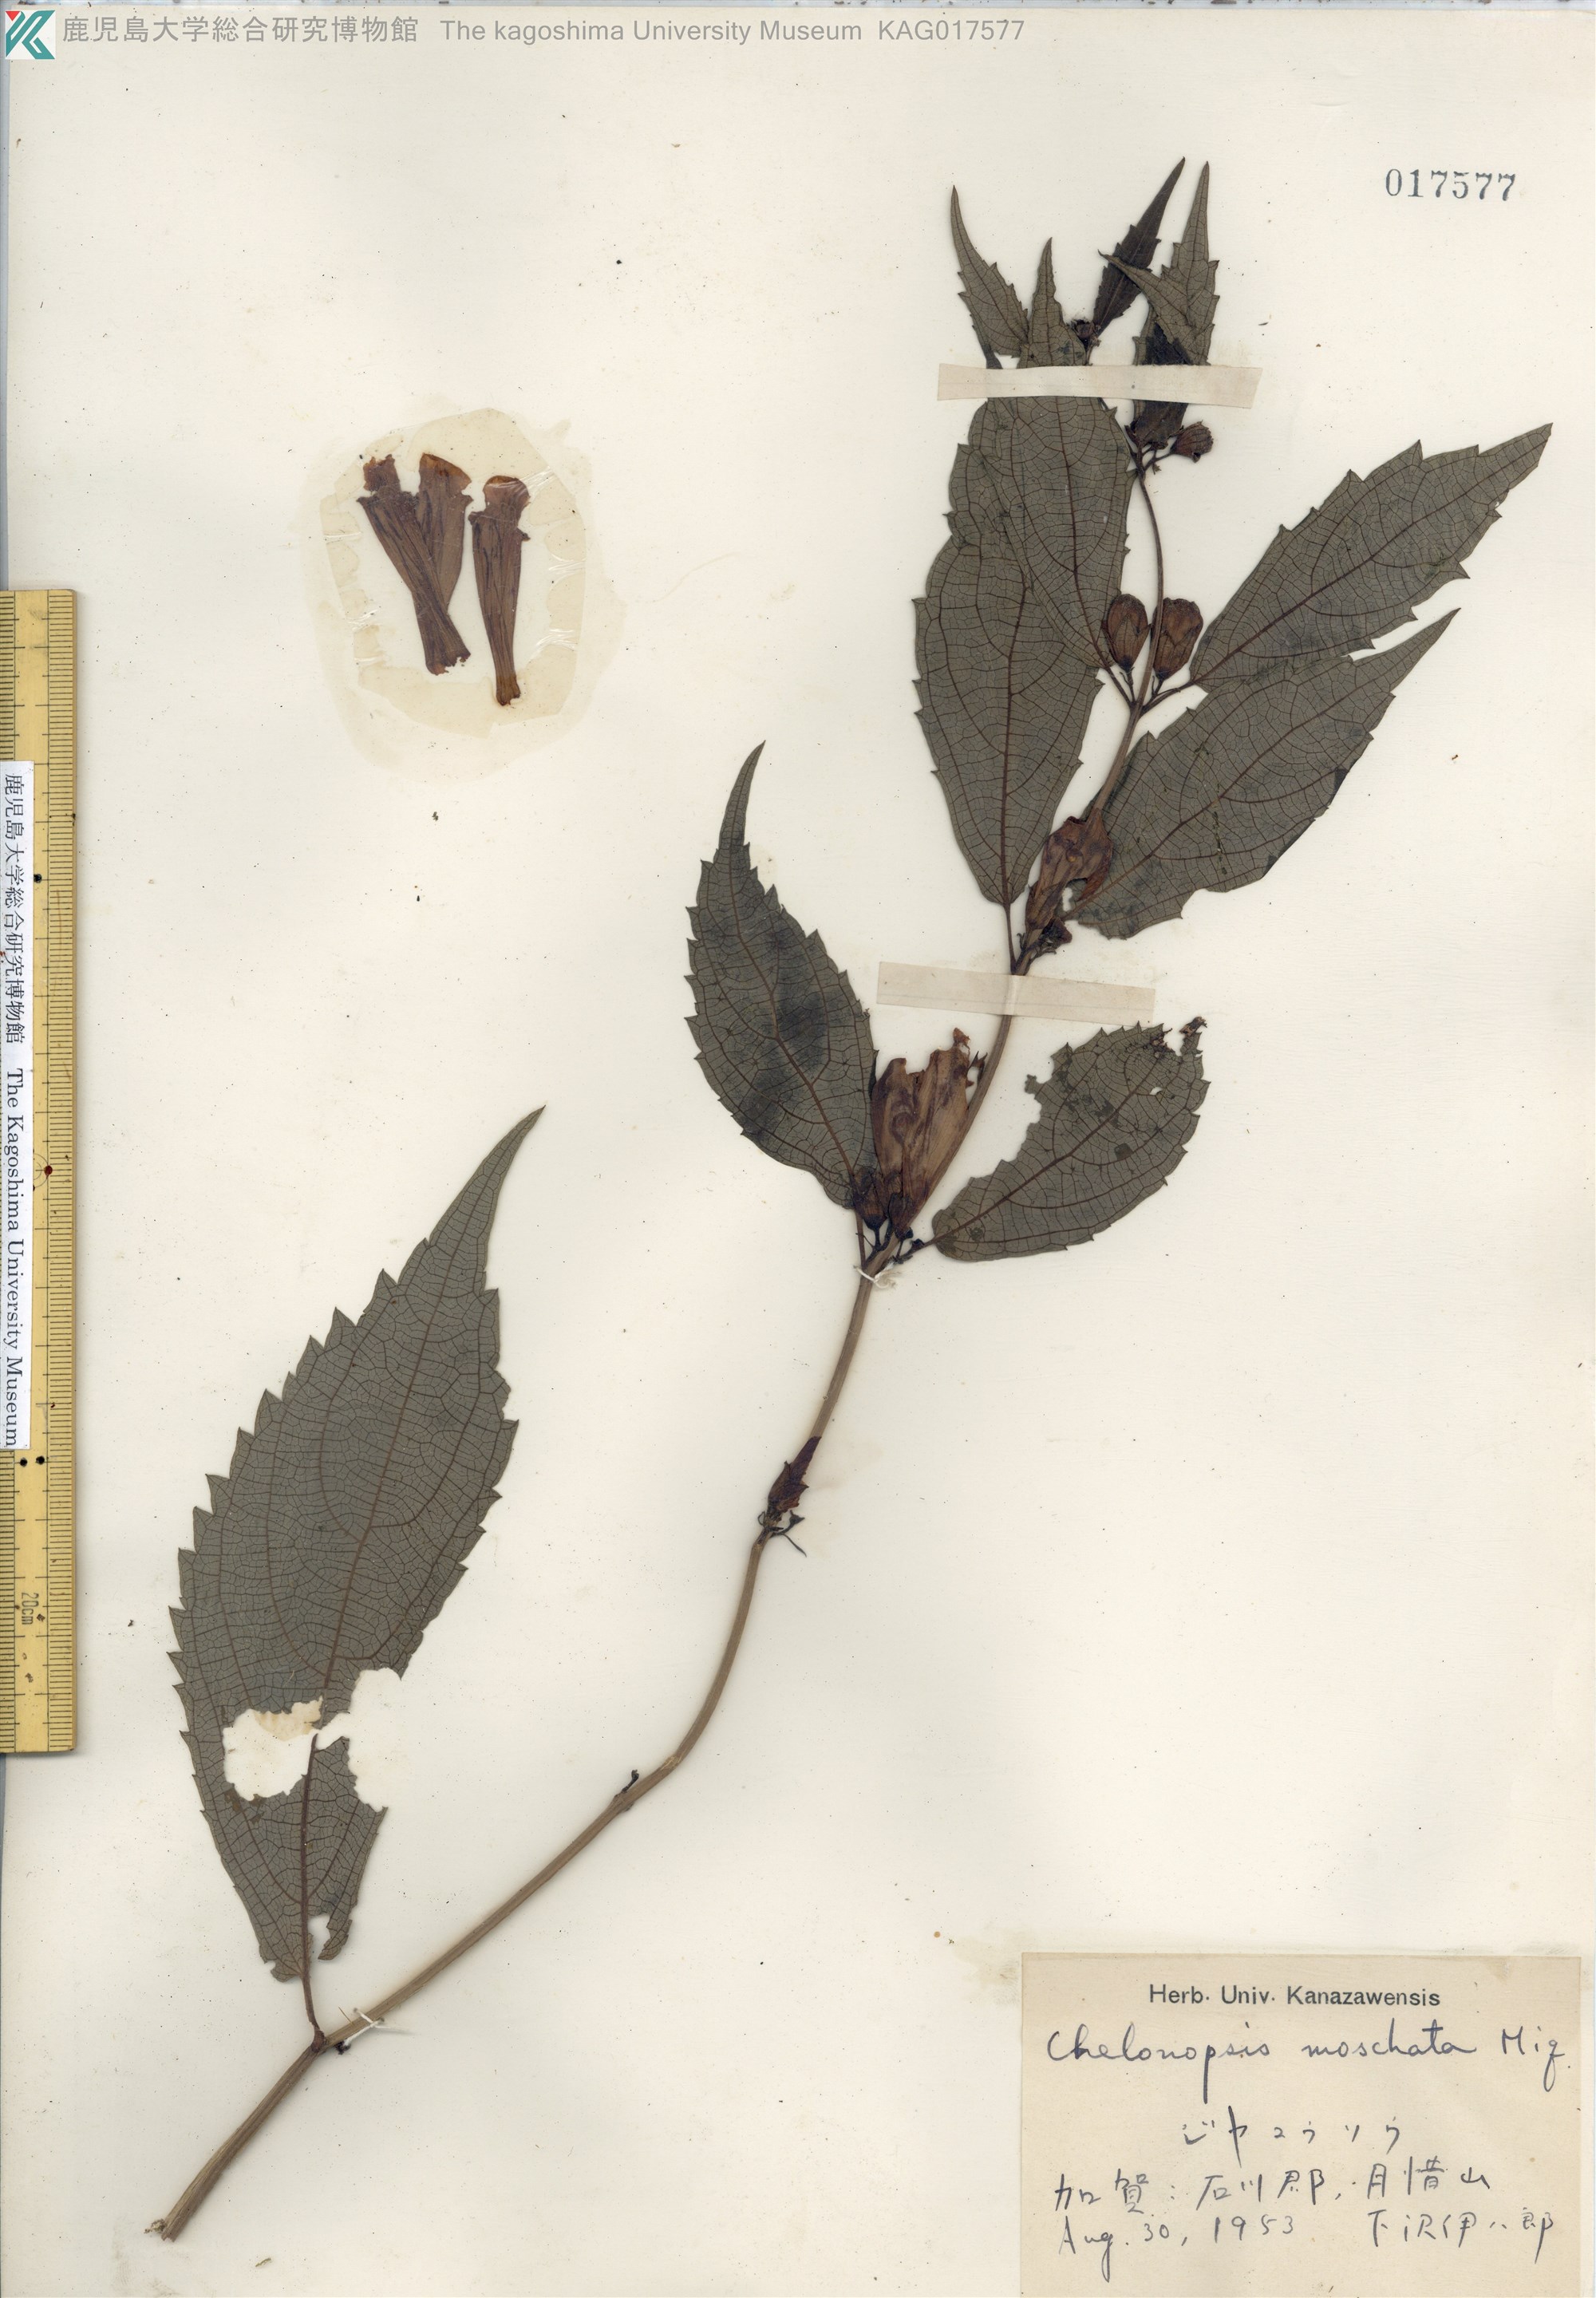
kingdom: Plantae
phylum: Tracheophyta
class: Magnoliopsida
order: Lamiales
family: Lamiaceae
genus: Chelonopsis
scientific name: Chelonopsis moschata
